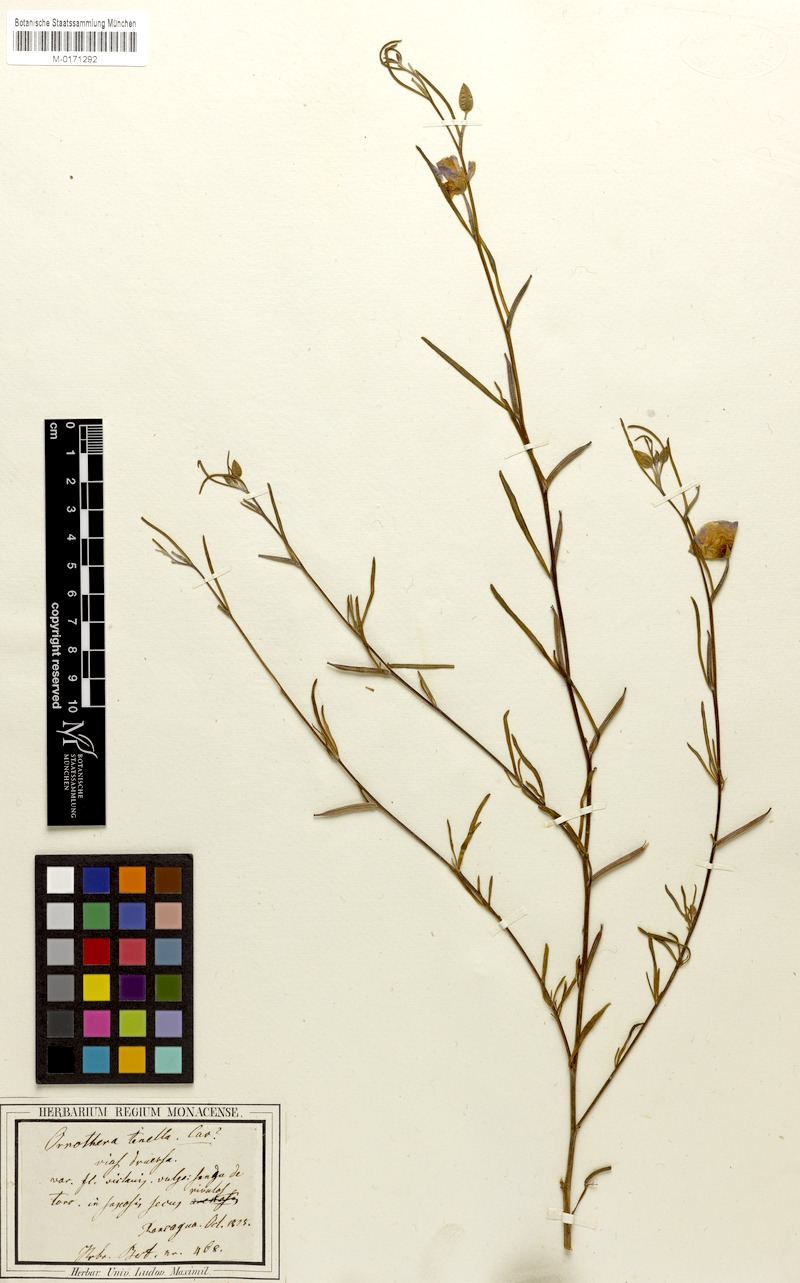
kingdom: Plantae
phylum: Tracheophyta
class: Magnoliopsida
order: Myrtales
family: Onagraceae
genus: Clarkia
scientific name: Clarkia tenella
